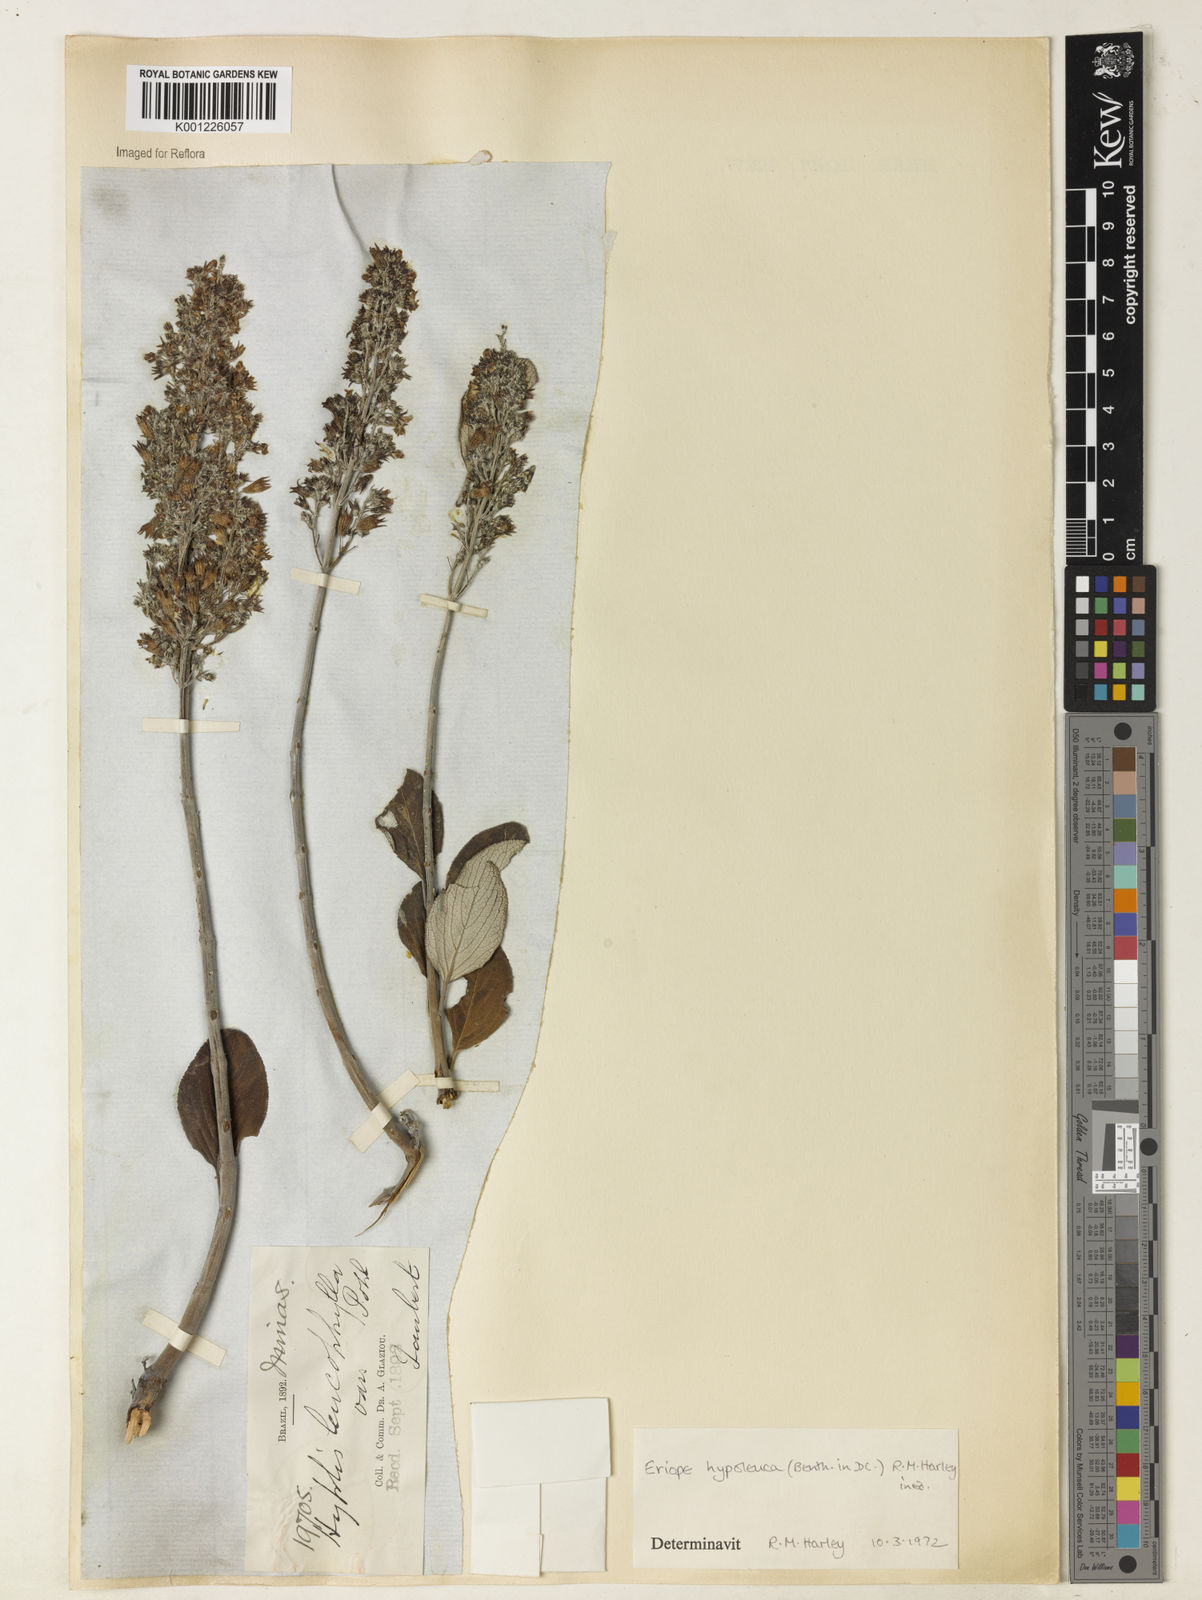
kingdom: Plantae
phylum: Tracheophyta
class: Magnoliopsida
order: Lamiales
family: Lamiaceae
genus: Eriope
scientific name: Eriope hypoleuca
